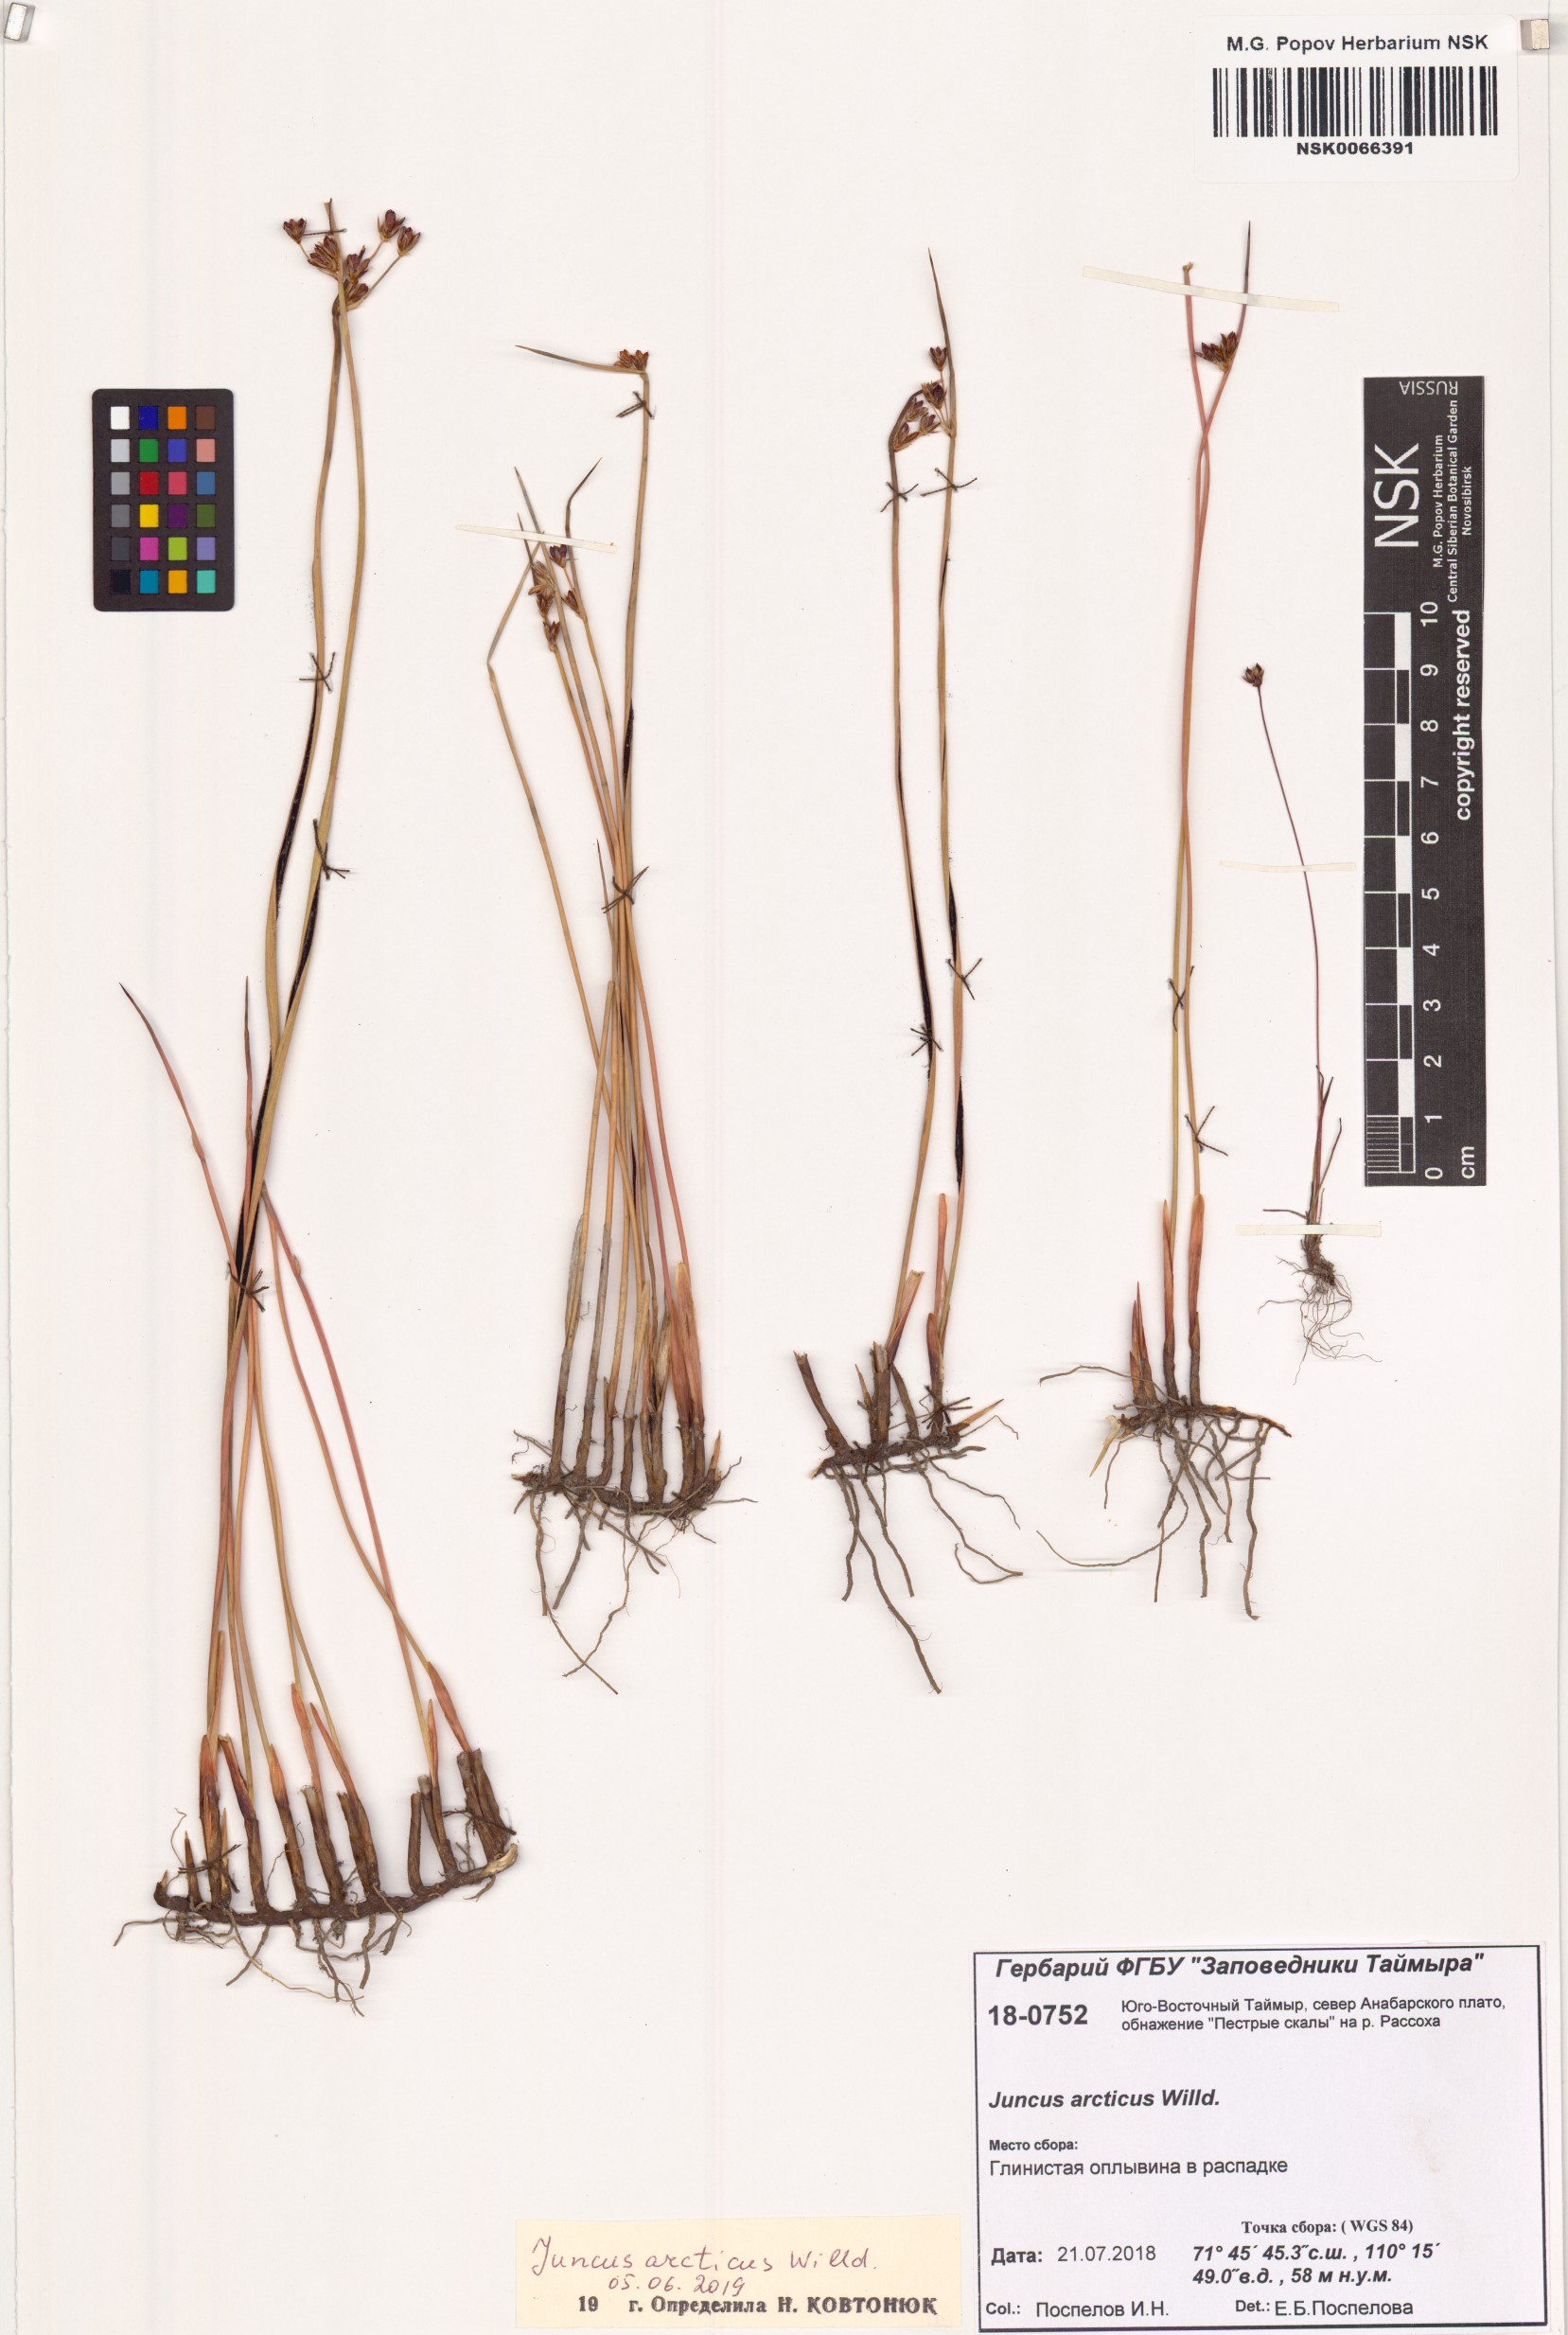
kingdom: Plantae
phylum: Tracheophyta
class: Liliopsida
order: Poales
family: Juncaceae
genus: Juncus
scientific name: Juncus arcticus
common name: Arctic rush
